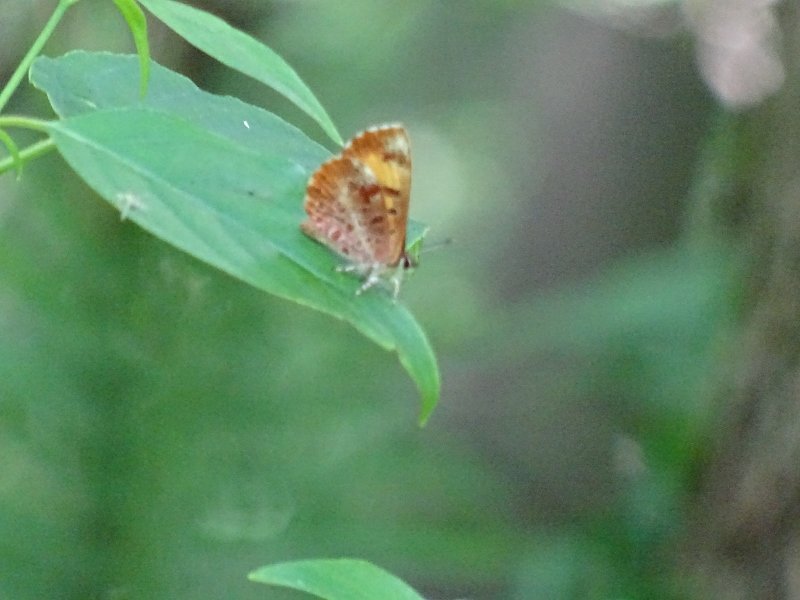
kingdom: Animalia
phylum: Arthropoda
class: Insecta
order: Lepidoptera
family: Lycaenidae
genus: Feniseca
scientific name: Feniseca tarquinius
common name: Harvester
